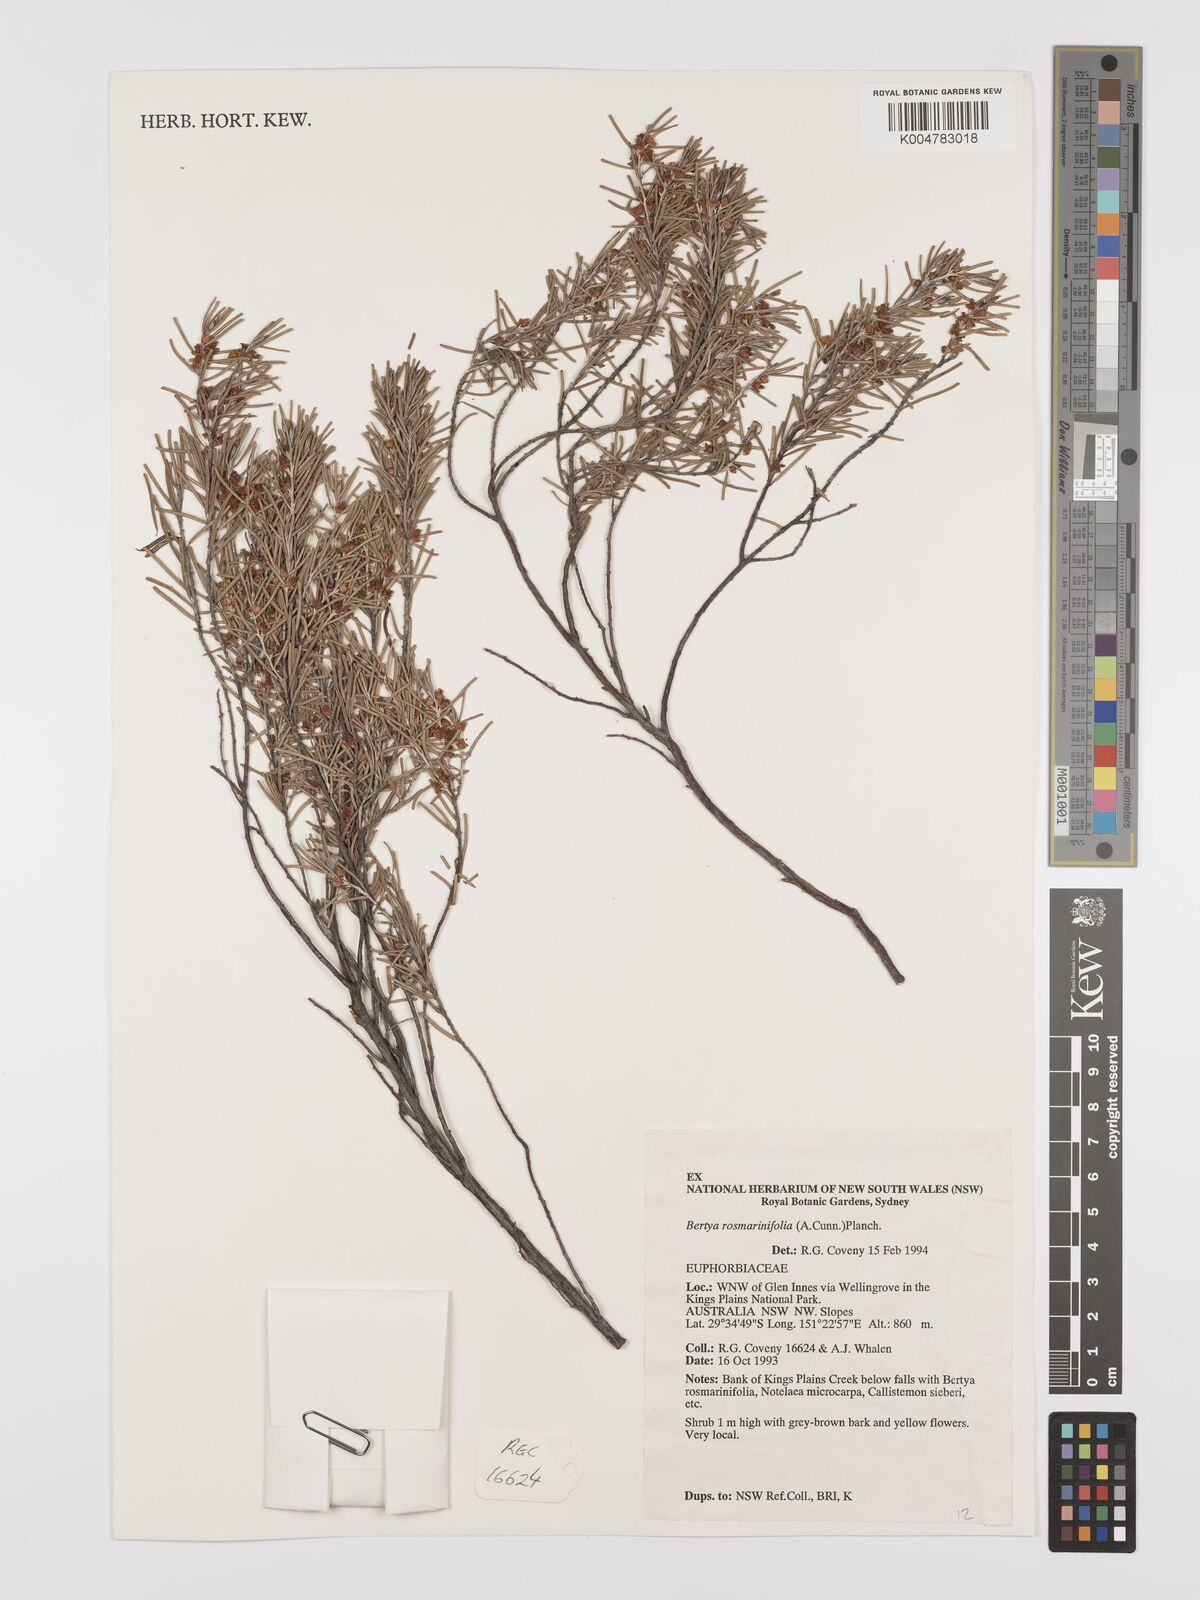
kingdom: Plantae
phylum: Tracheophyta
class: Magnoliopsida
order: Malpighiales
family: Euphorbiaceae
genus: Bertya
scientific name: Bertya rosmarinifolia
